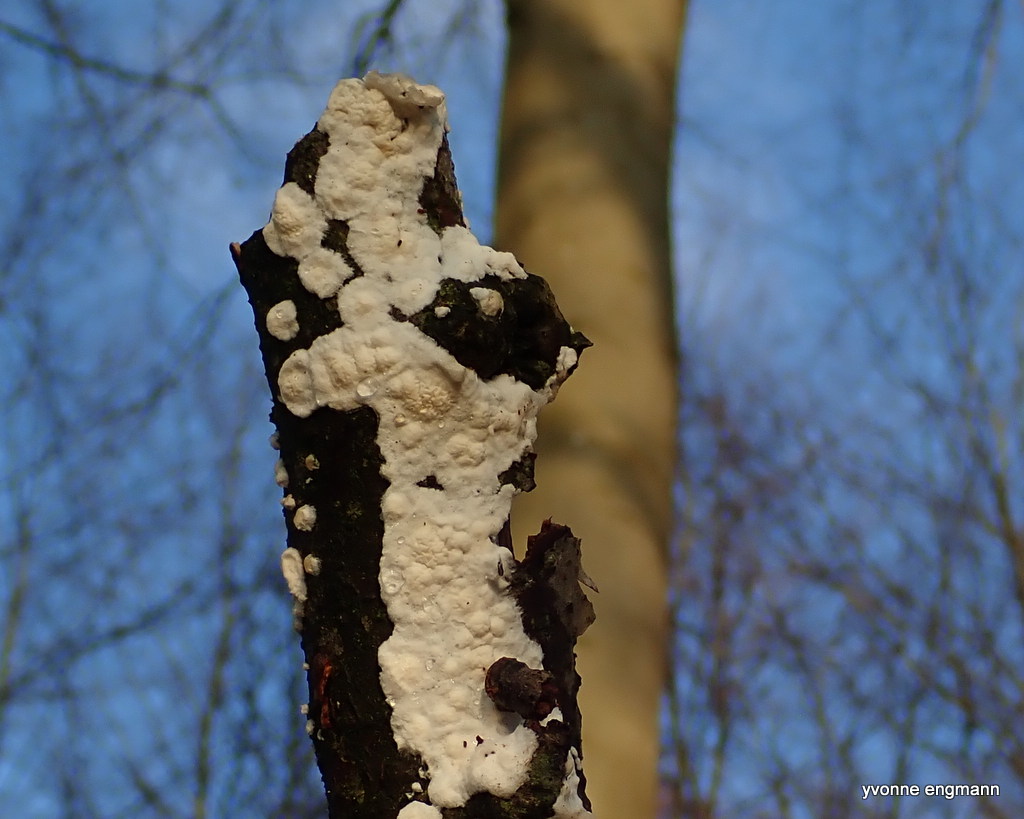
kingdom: Fungi
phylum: Basidiomycota
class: Agaricomycetes
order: Polyporales
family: Irpicaceae
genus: Byssomerulius
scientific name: Byssomerulius corium
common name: læder-åresvamp
